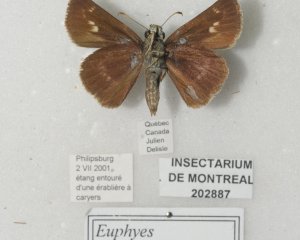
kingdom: Animalia
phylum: Arthropoda
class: Insecta
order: Lepidoptera
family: Hesperiidae
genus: Euphyes
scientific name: Euphyes vestris
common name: Dun Skipper
